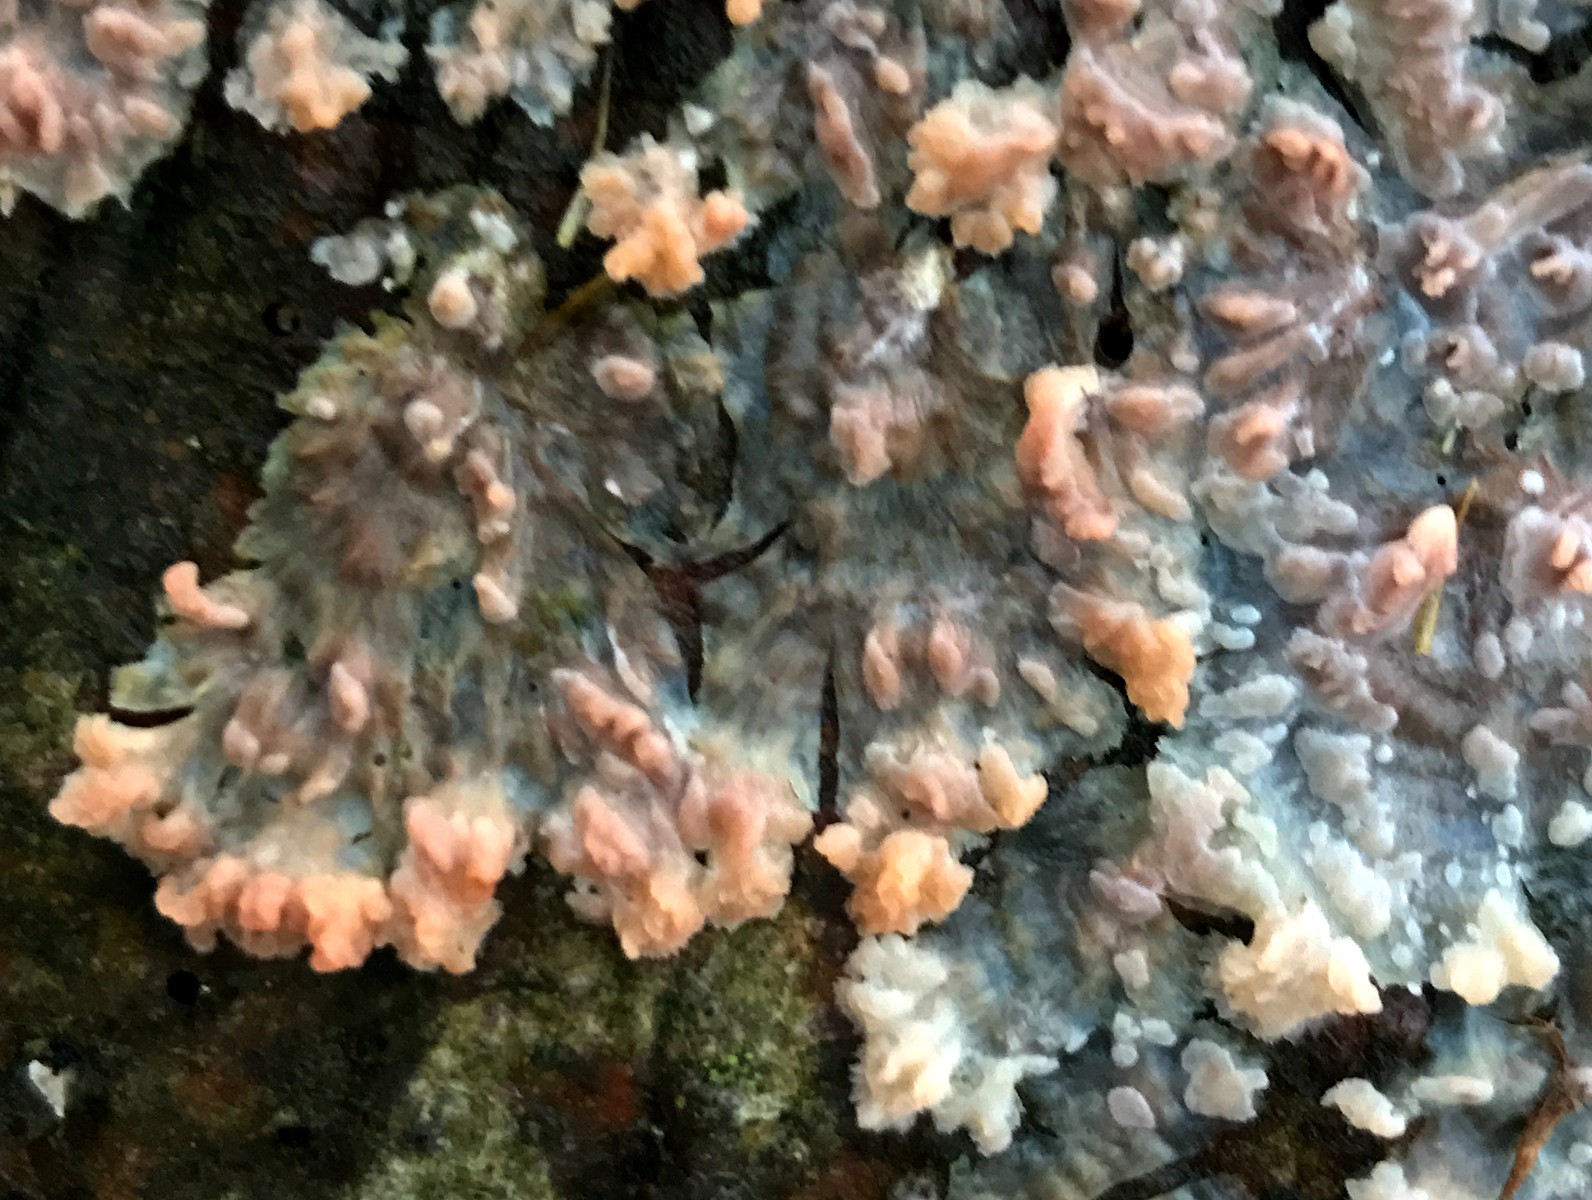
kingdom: Fungi
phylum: Basidiomycota
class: Agaricomycetes
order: Polyporales
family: Meruliaceae
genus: Phlebia
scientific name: Phlebia radiata
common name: stråle-åresvamp
